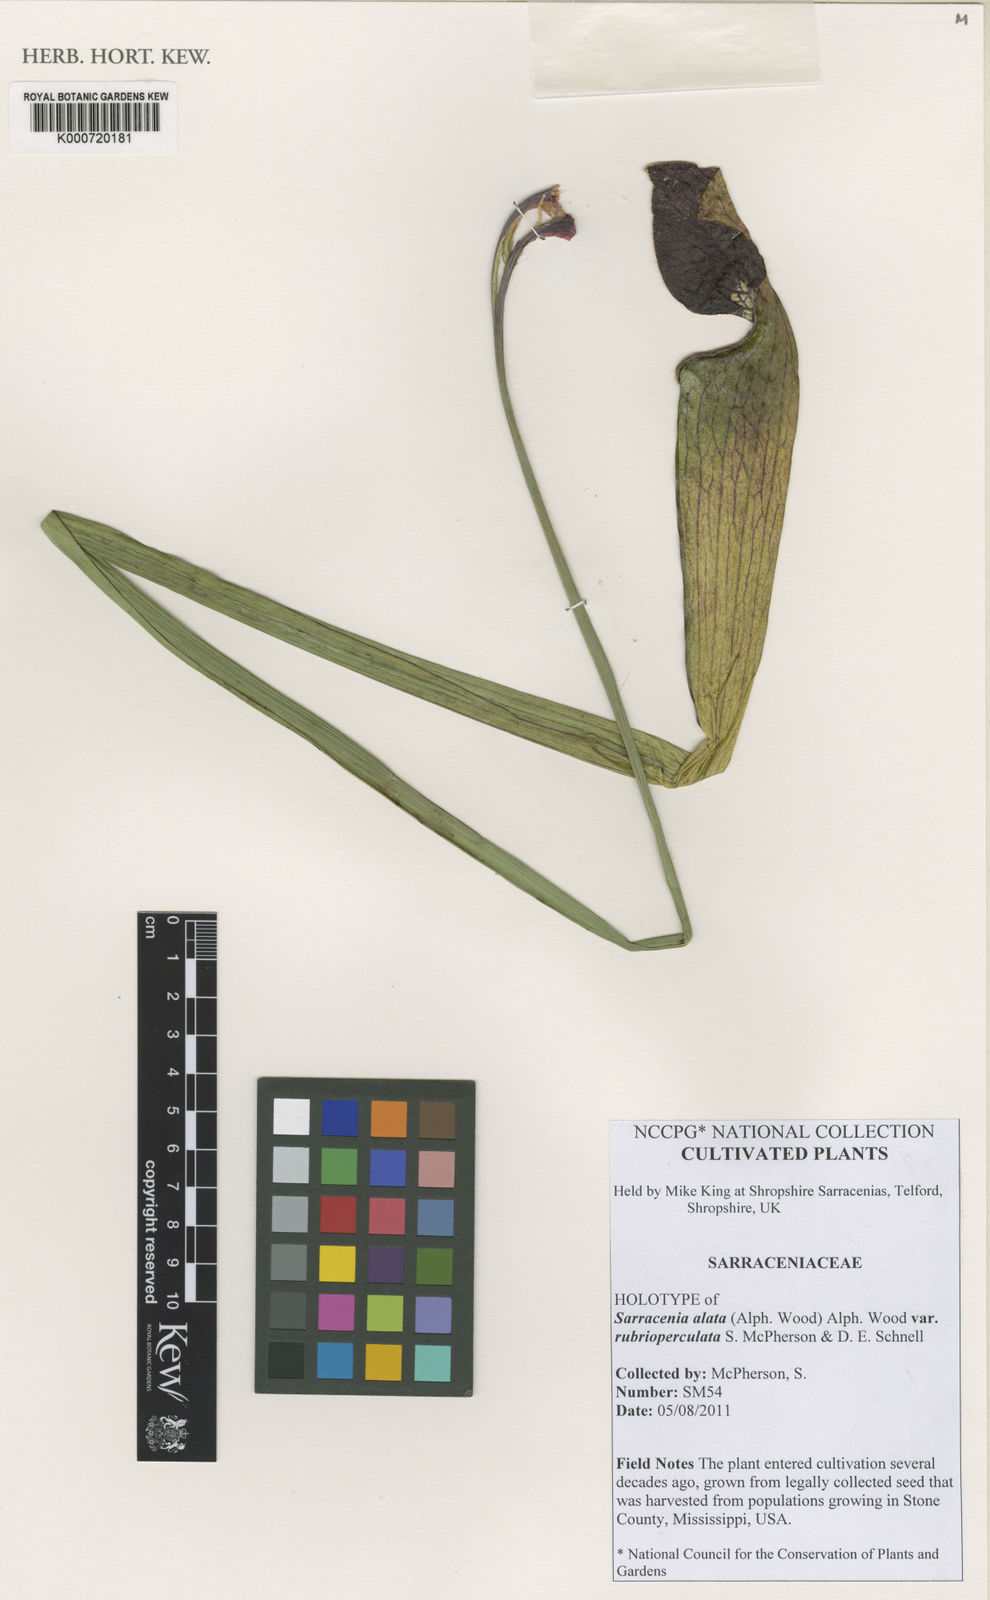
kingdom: Plantae
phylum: Tracheophyta
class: Magnoliopsida
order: Ericales
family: Sarraceniaceae
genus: Sarracenia
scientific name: Sarracenia alata
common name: Yellow trumpets
